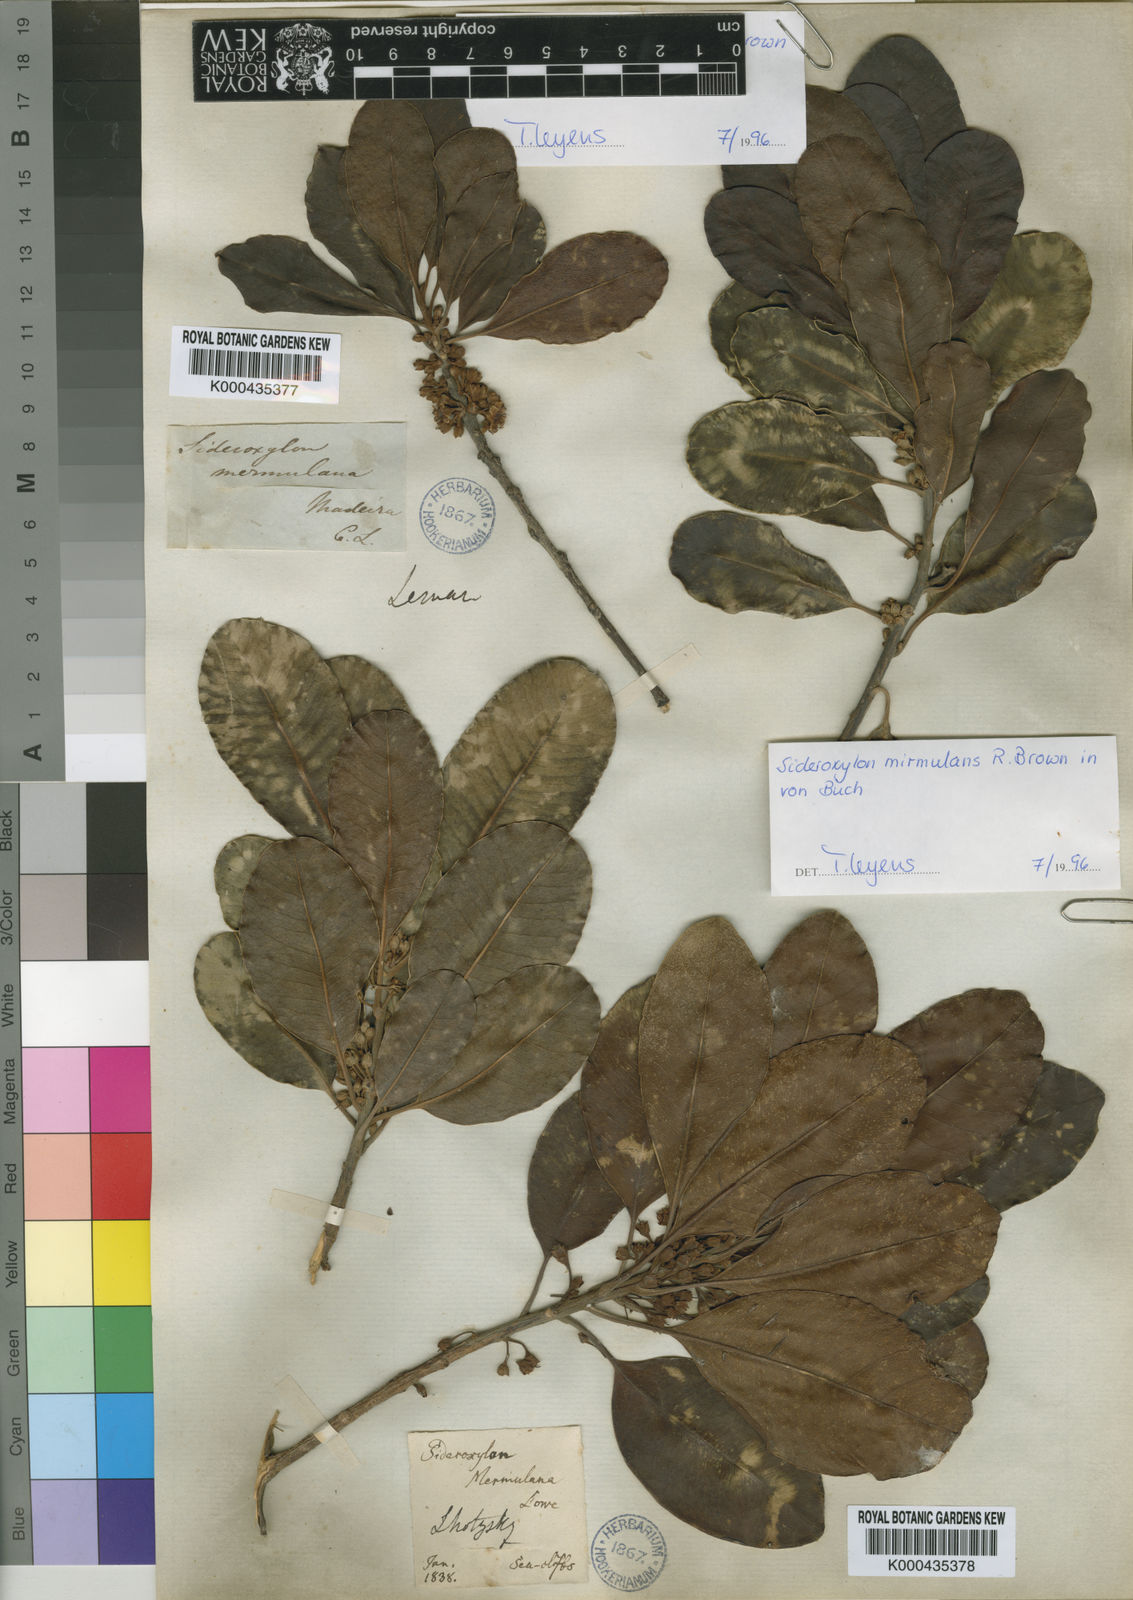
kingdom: Plantae
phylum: Tracheophyta
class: Magnoliopsida
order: Ericales
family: Sapotaceae
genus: Sideroxylon
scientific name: Sideroxylon
